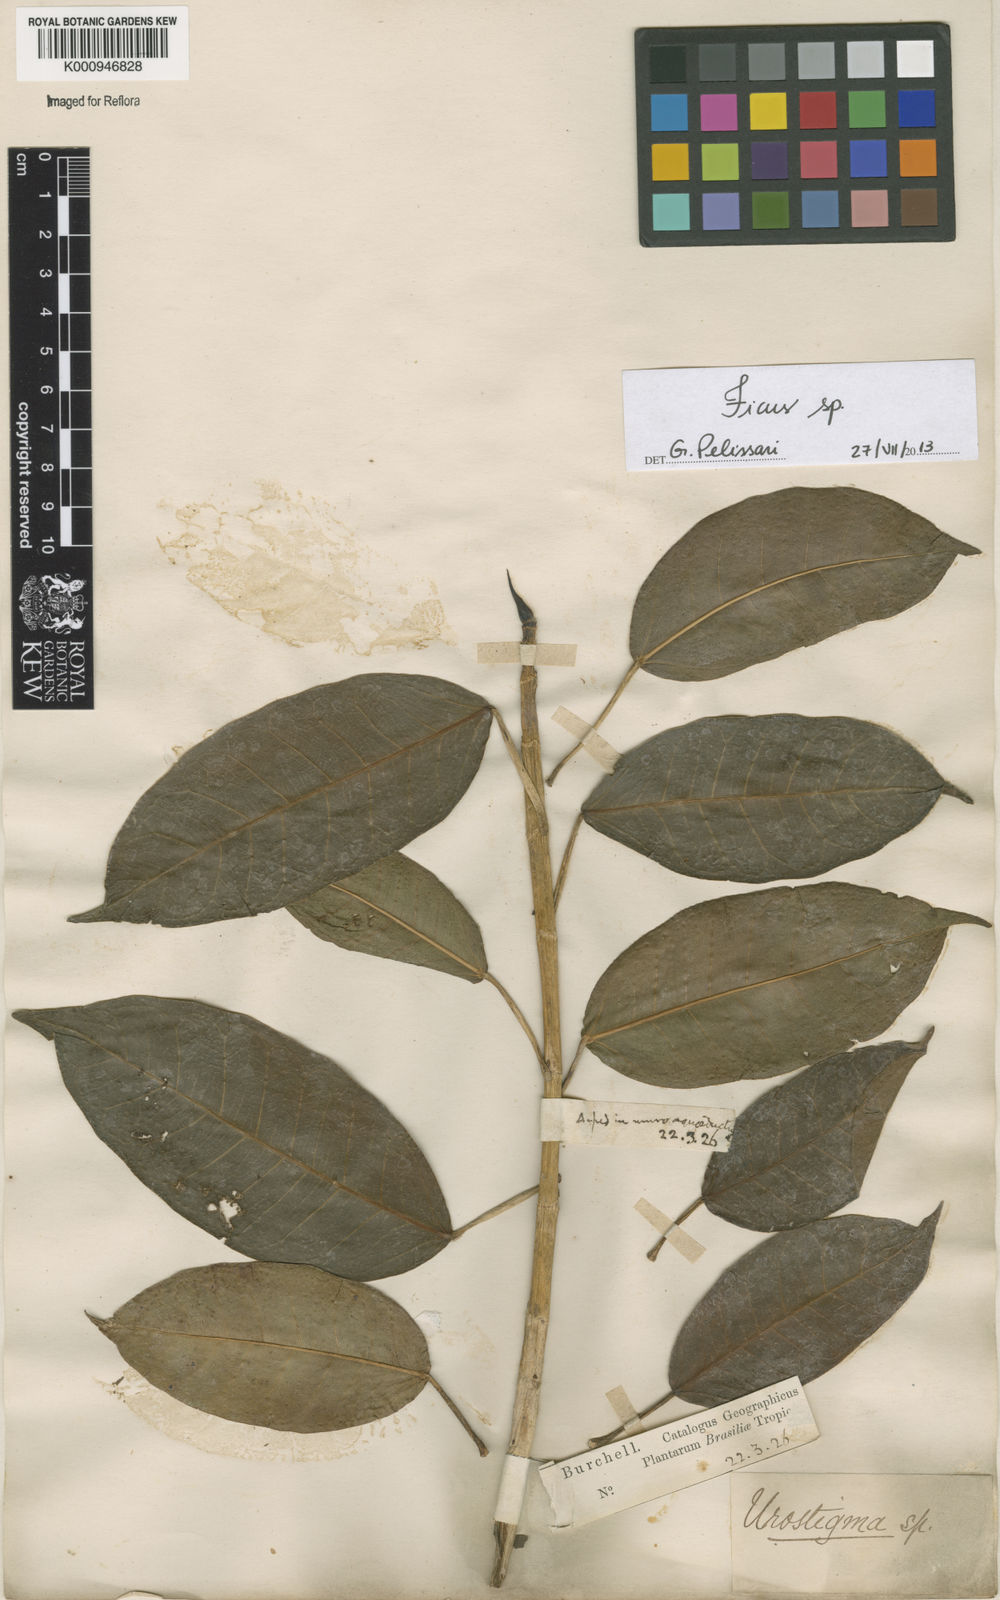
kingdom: Plantae
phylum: Tracheophyta
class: Magnoliopsida
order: Rosales
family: Moraceae
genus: Ficus
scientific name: Ficus
